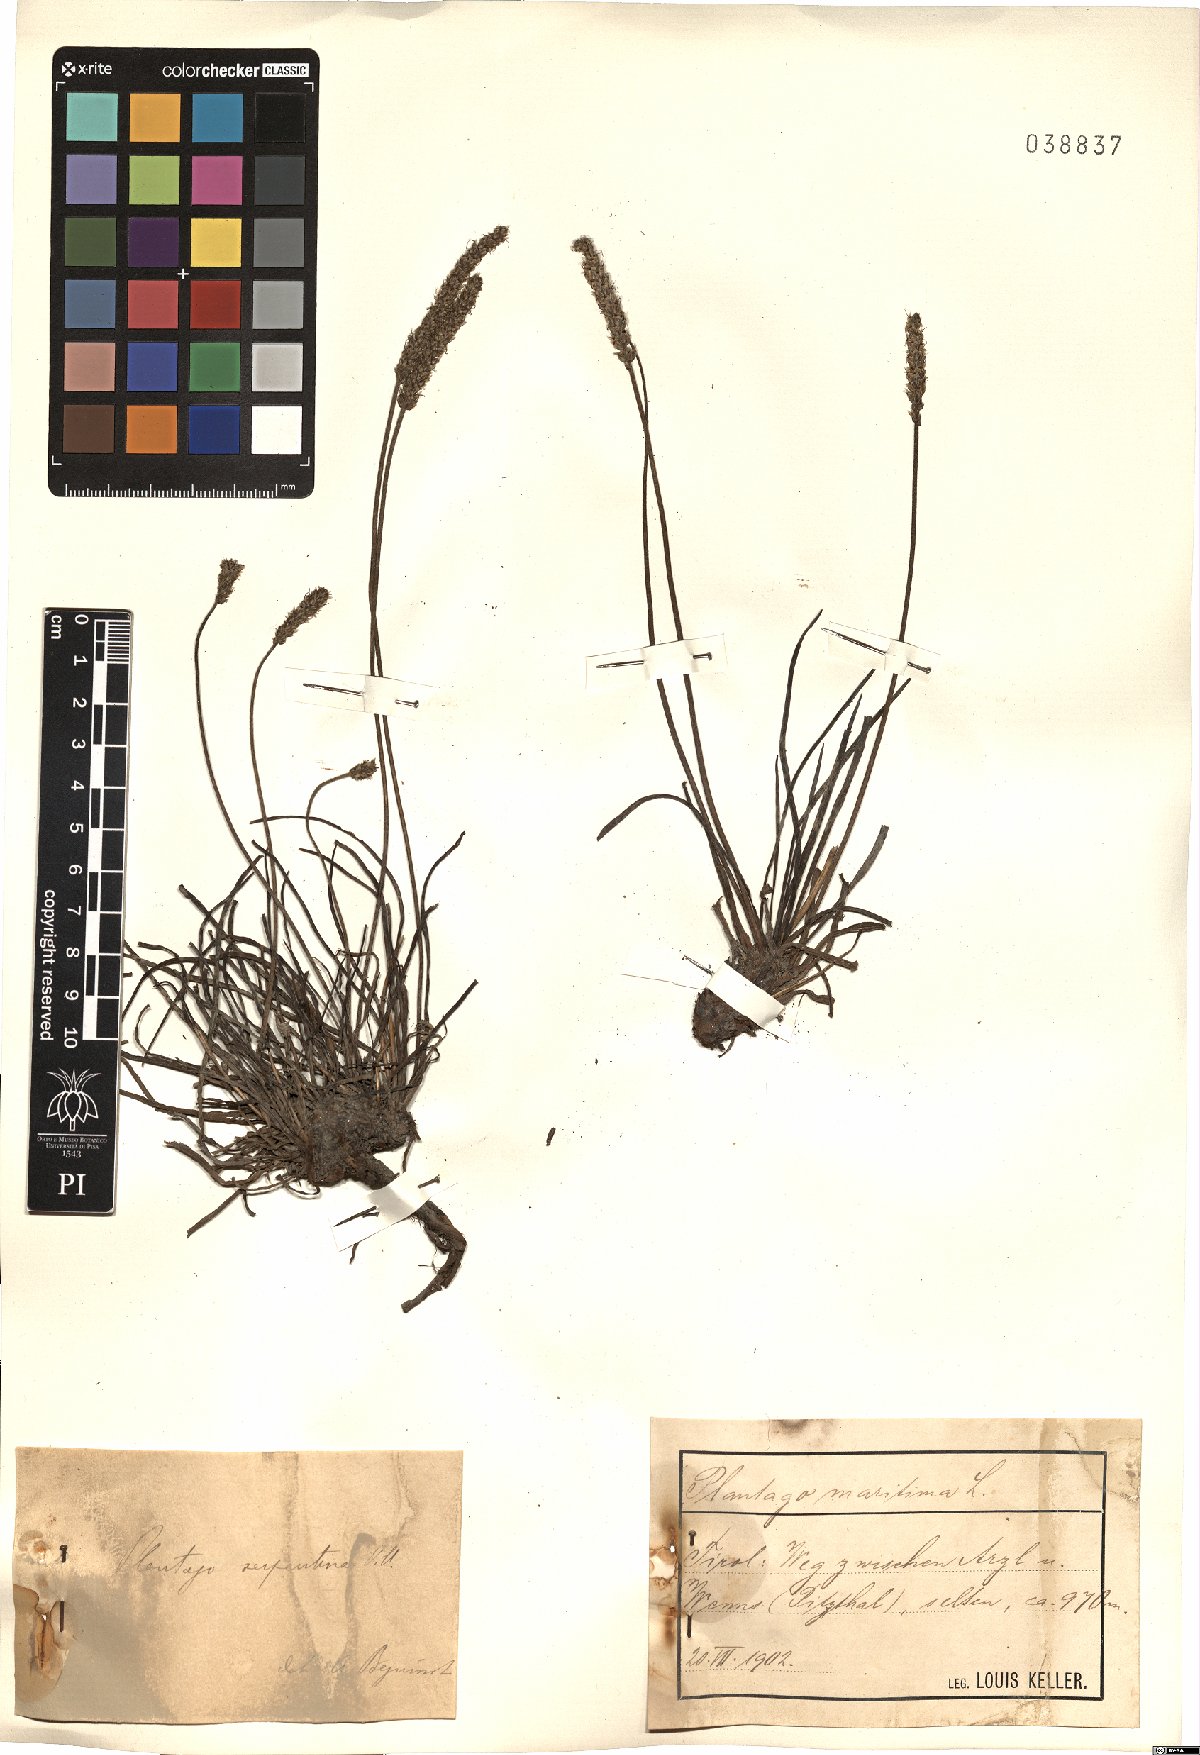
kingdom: Plantae
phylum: Tracheophyta
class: Magnoliopsida
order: Lamiales
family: Plantaginaceae
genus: Plantago
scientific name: Plantago strictissima
